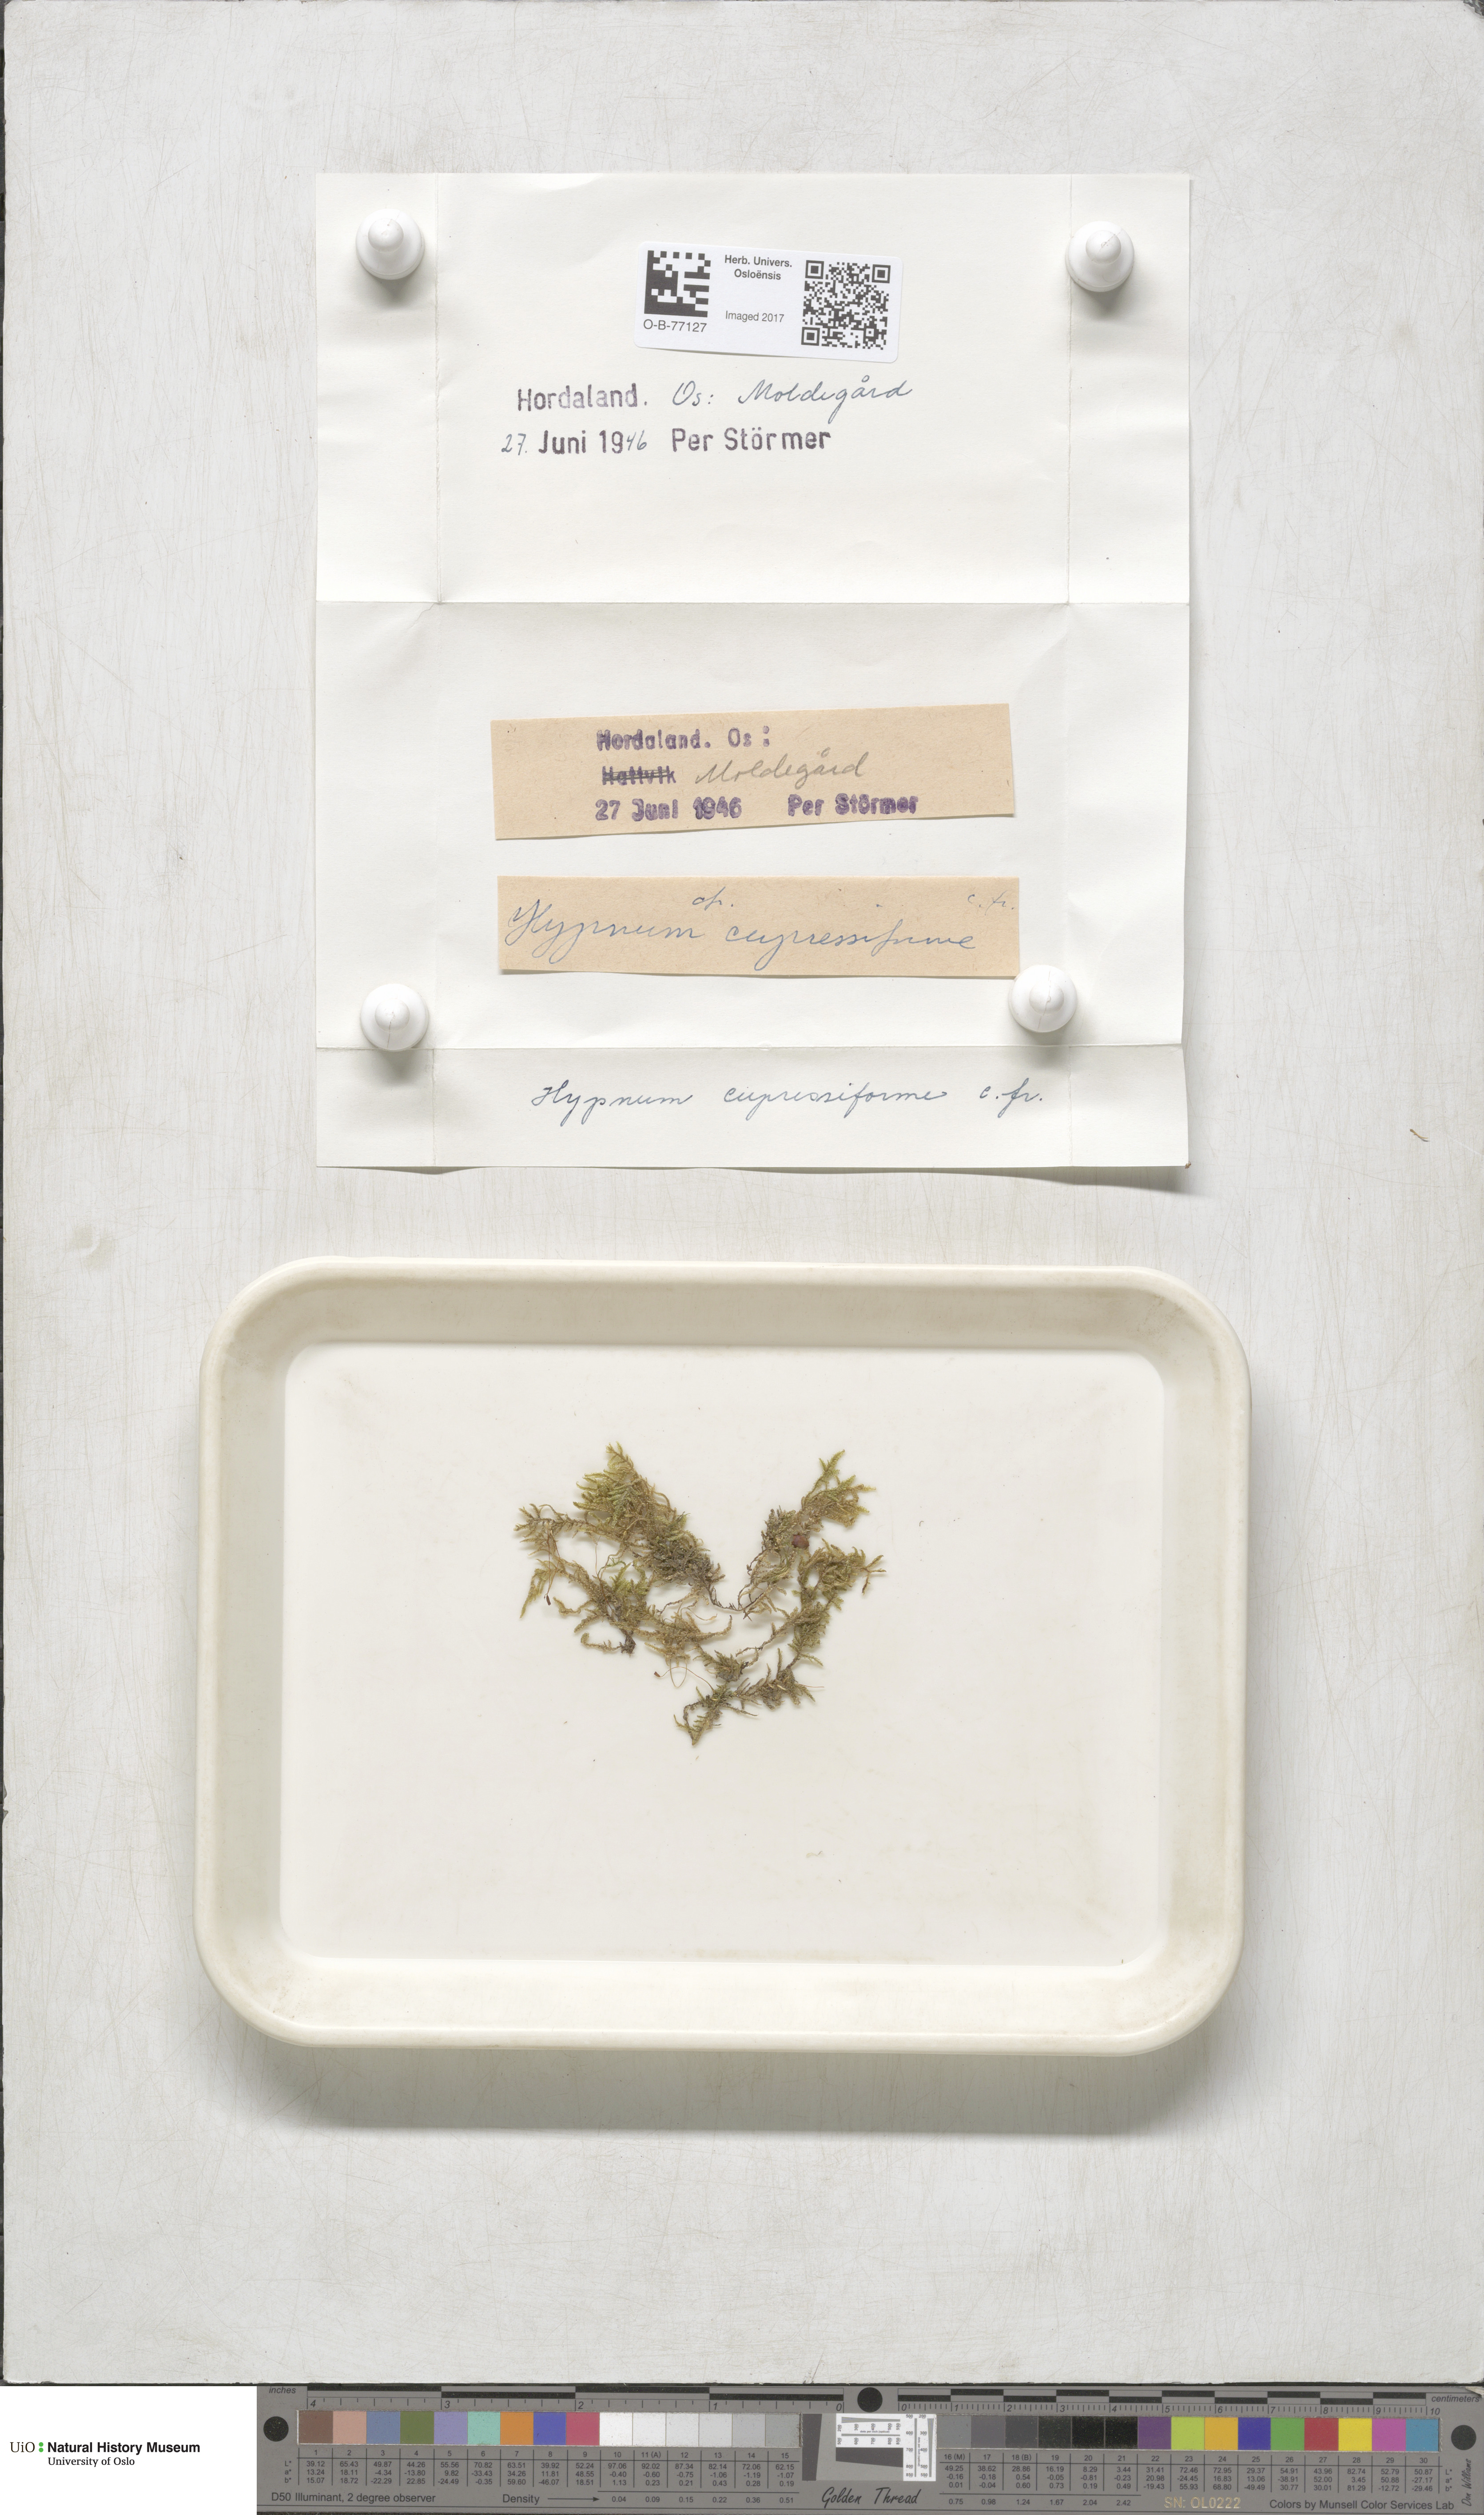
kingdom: Plantae
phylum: Bryophyta
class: Bryopsida
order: Hypnales
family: Hypnaceae
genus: Hypnum
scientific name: Hypnum cupressiforme
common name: Cypress-leaved plait-moss
